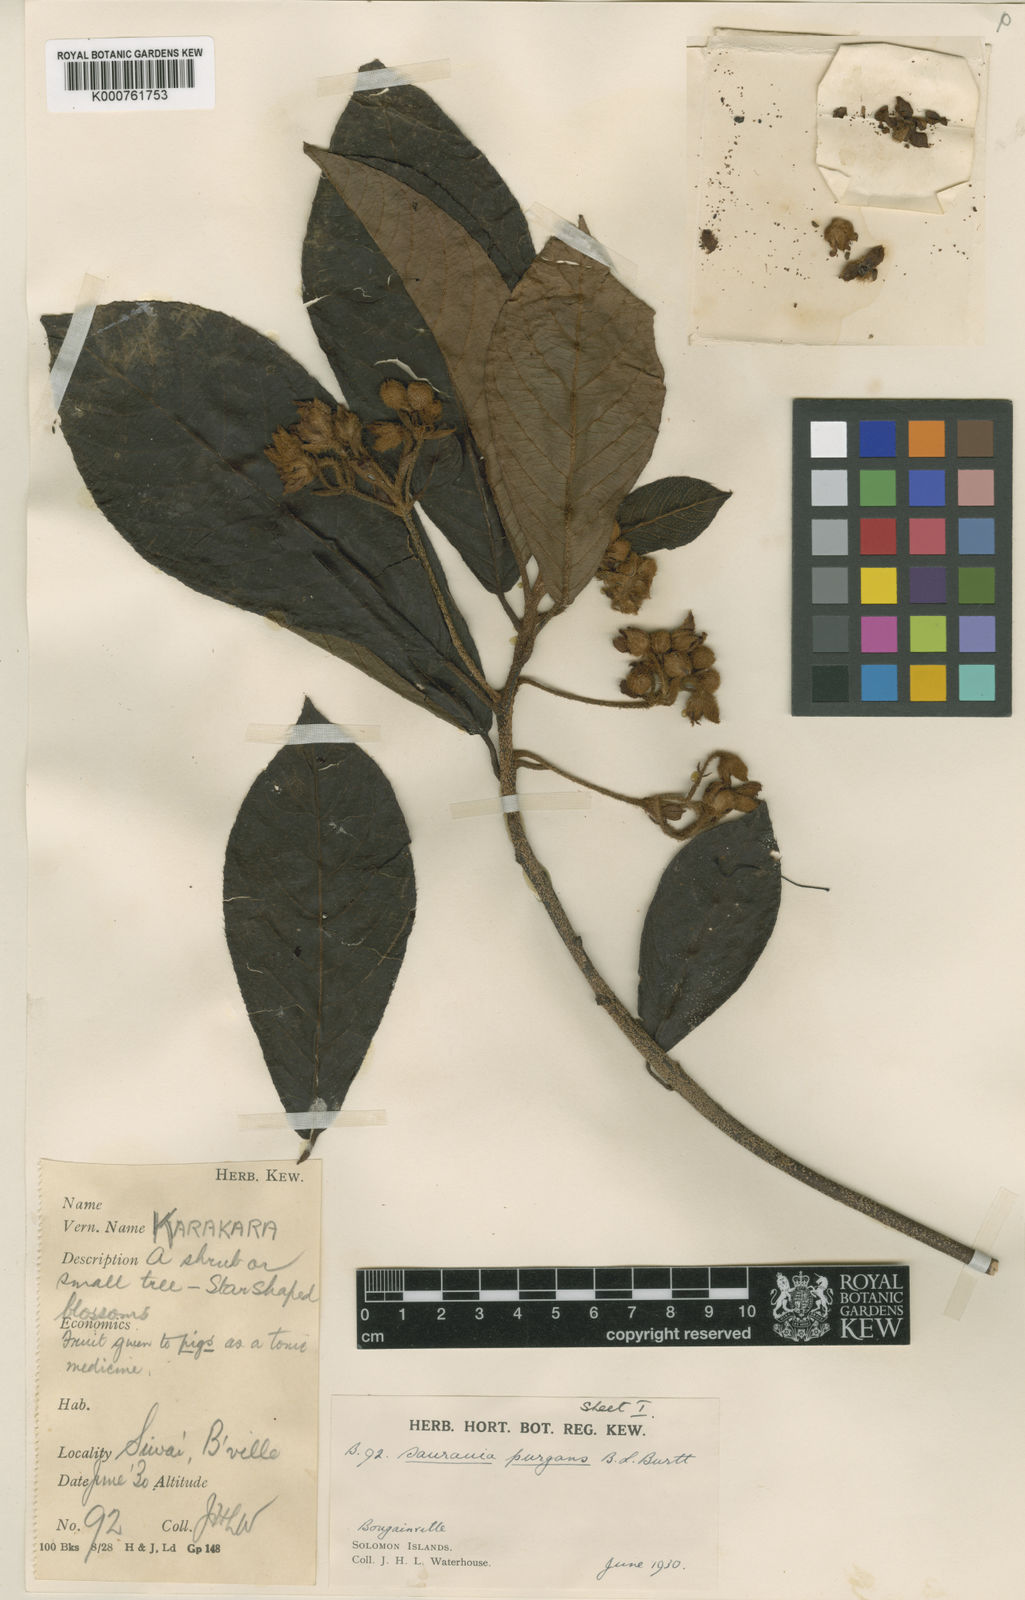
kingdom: Plantae
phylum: Tracheophyta
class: Magnoliopsida
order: Ericales
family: Actinidiaceae
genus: Saurauia
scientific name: Saurauia purgans
